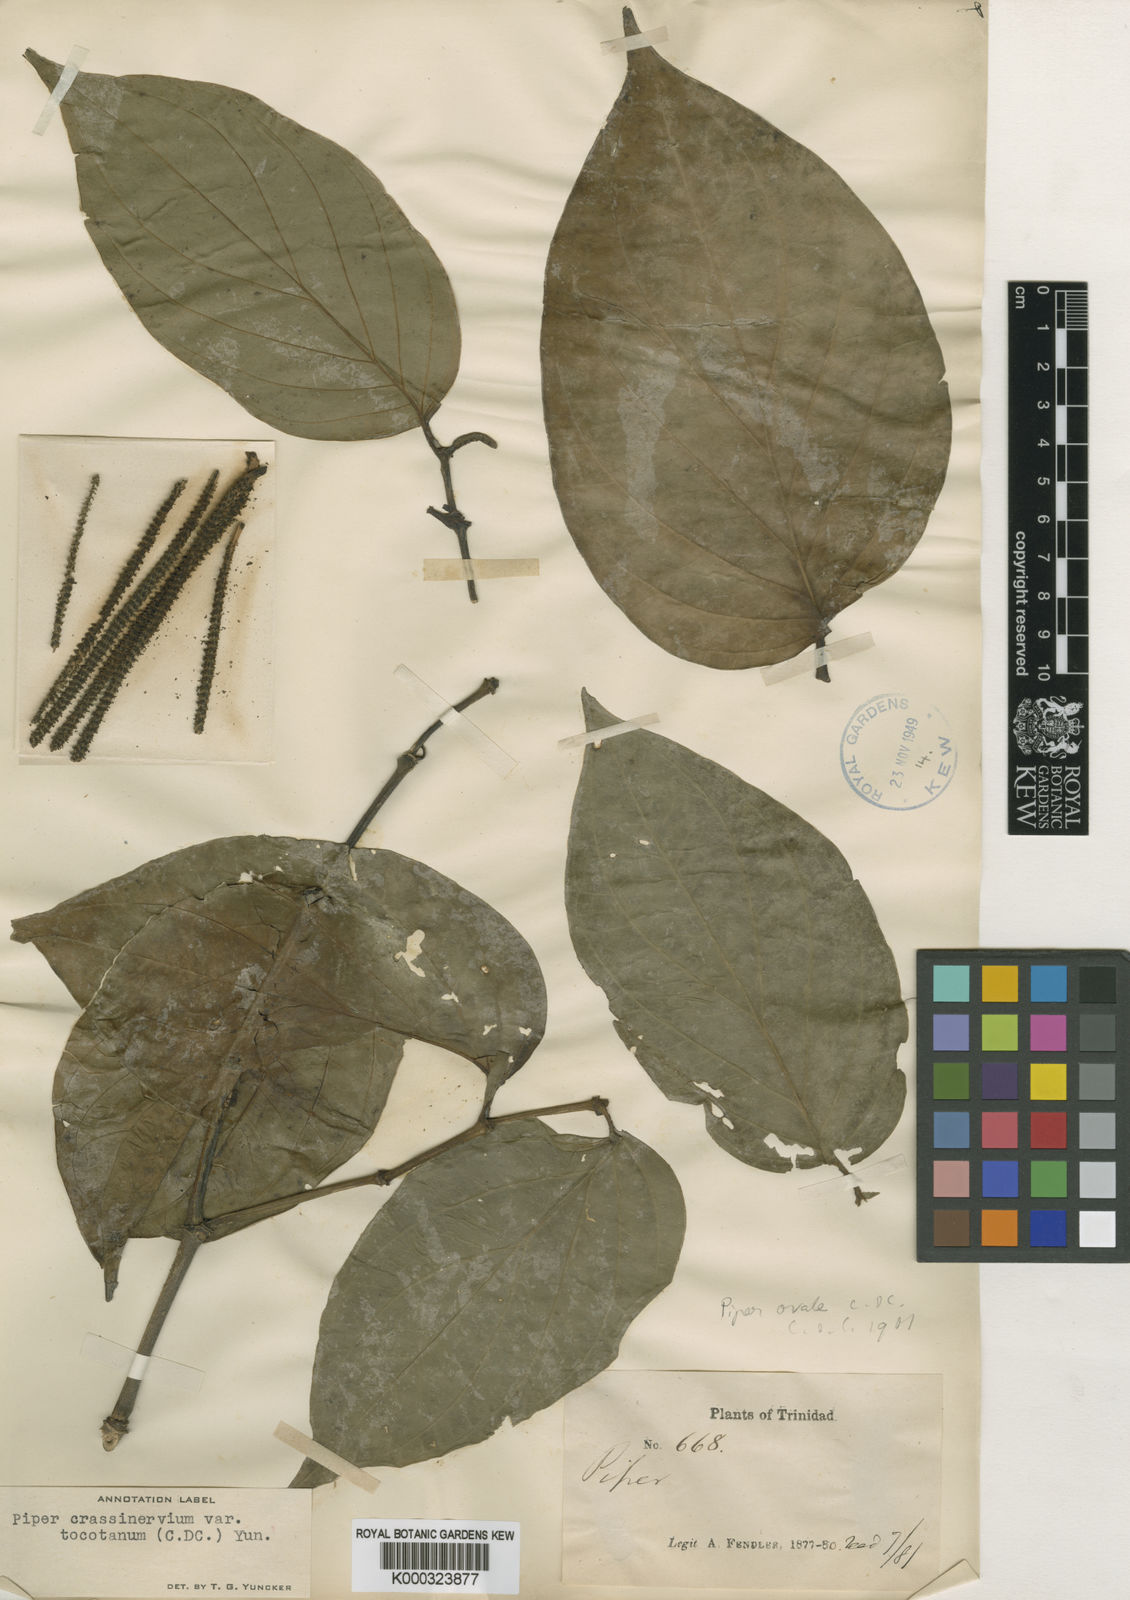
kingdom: Plantae
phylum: Tracheophyta
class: Magnoliopsida
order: Piperales
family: Piperaceae
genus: Piper
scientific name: Piper crassinervium
